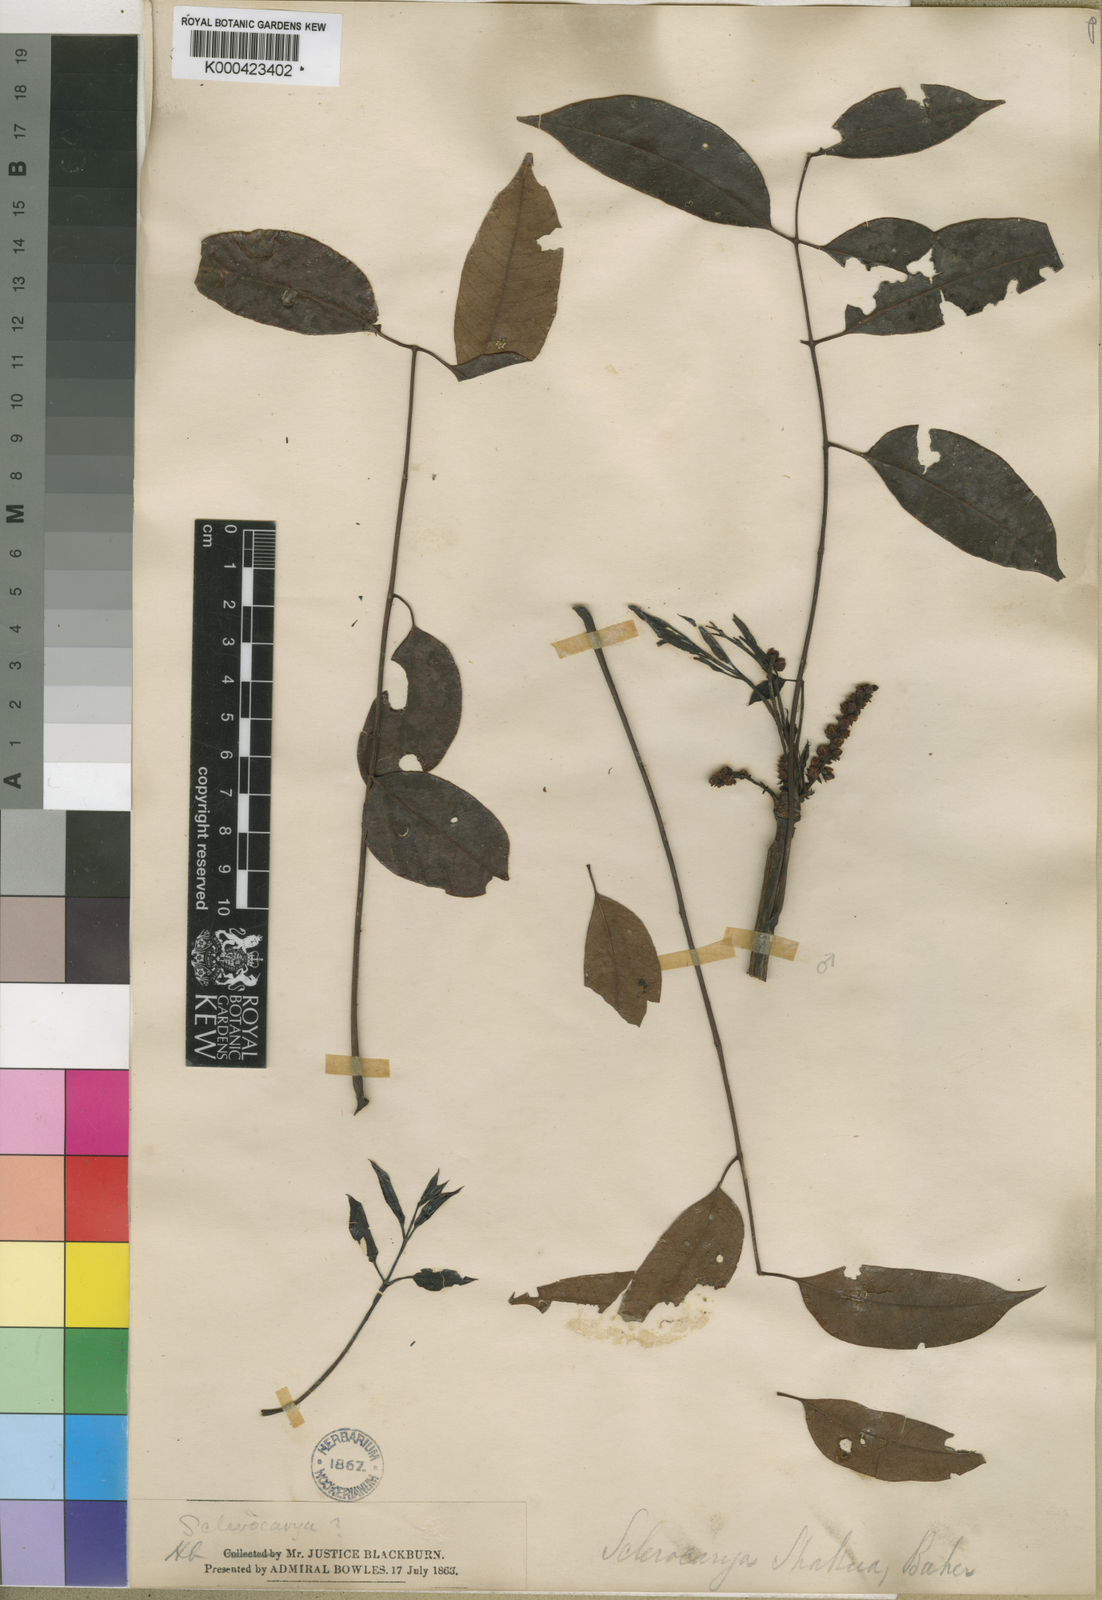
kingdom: Plantae
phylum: Tracheophyta
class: Magnoliopsida
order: Sapindales
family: Anacardiaceae
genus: Sclerocarya
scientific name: Sclerocarya birrea
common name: Marula
